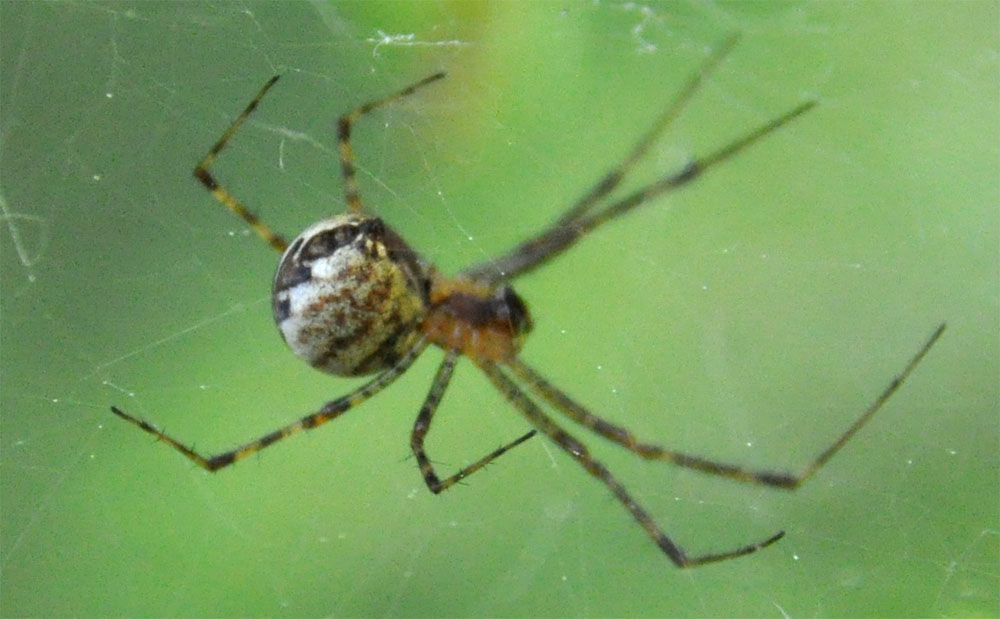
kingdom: Animalia
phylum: Arthropoda
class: Arachnida
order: Araneae
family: Linyphiidae
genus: Pityohyphantes
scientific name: Pityohyphantes phrygianus
